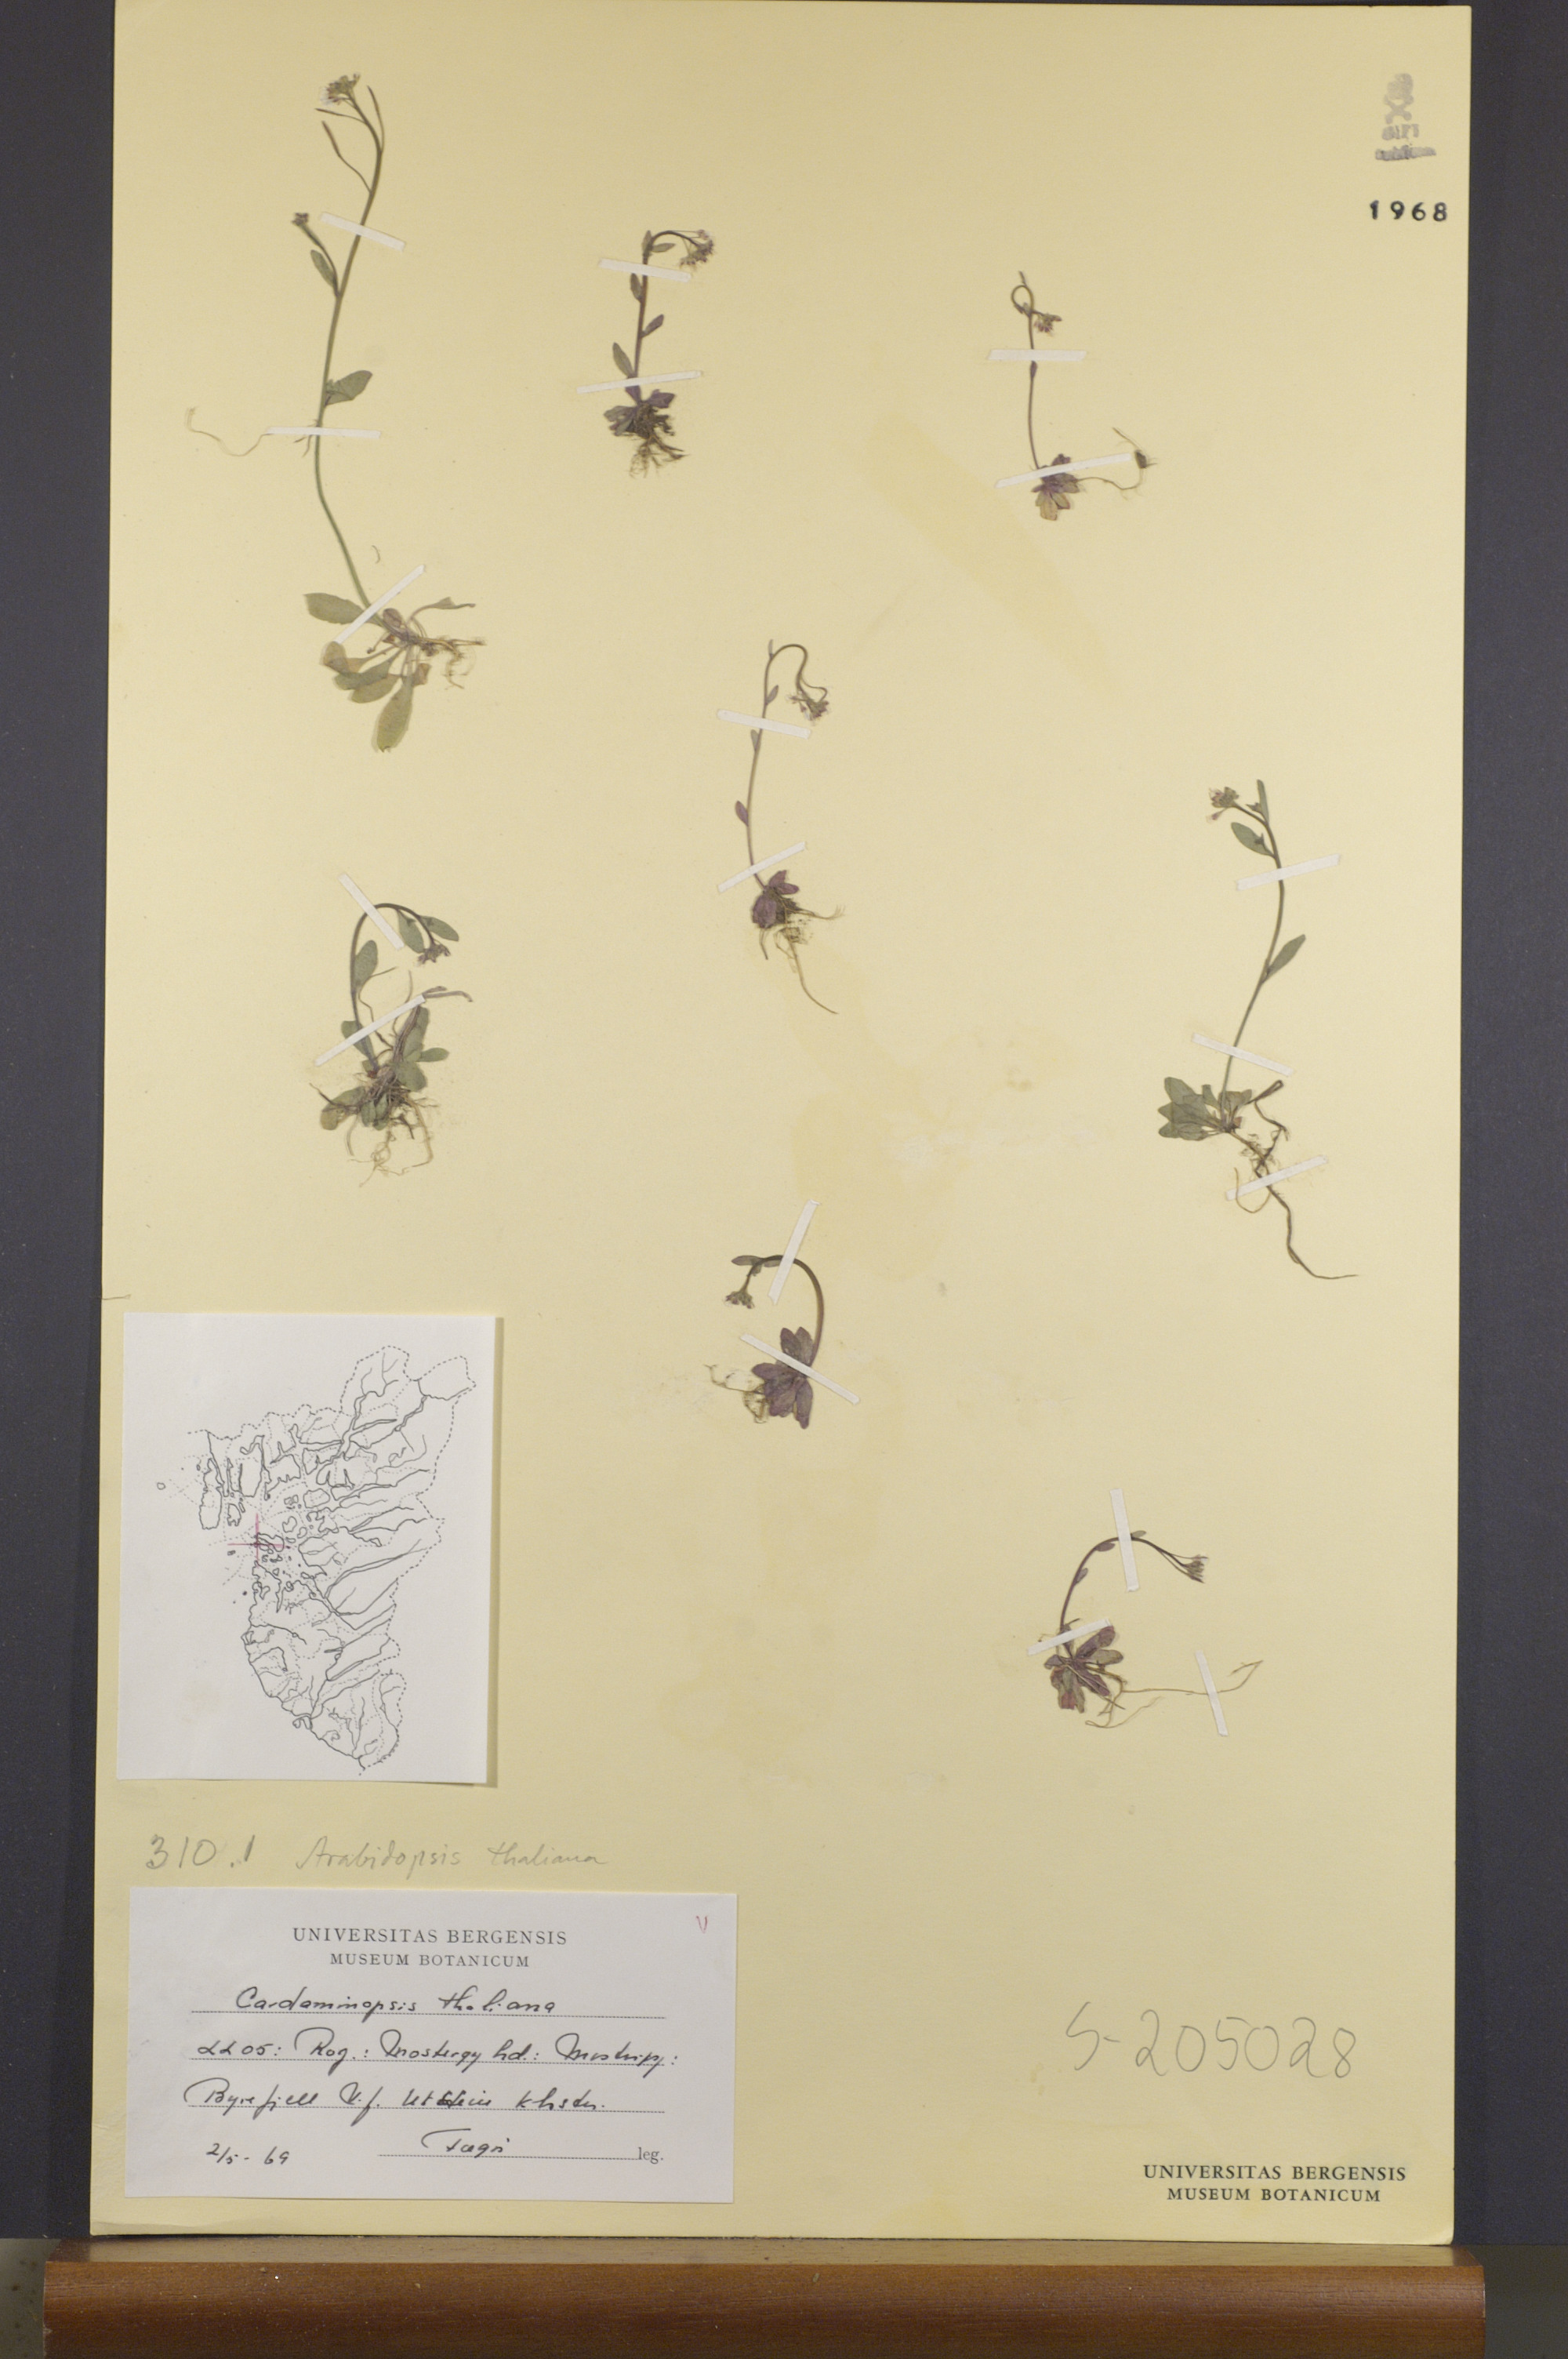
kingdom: Plantae
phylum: Tracheophyta
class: Magnoliopsida
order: Brassicales
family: Brassicaceae
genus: Arabidopsis
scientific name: Arabidopsis thaliana
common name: Thale cress
